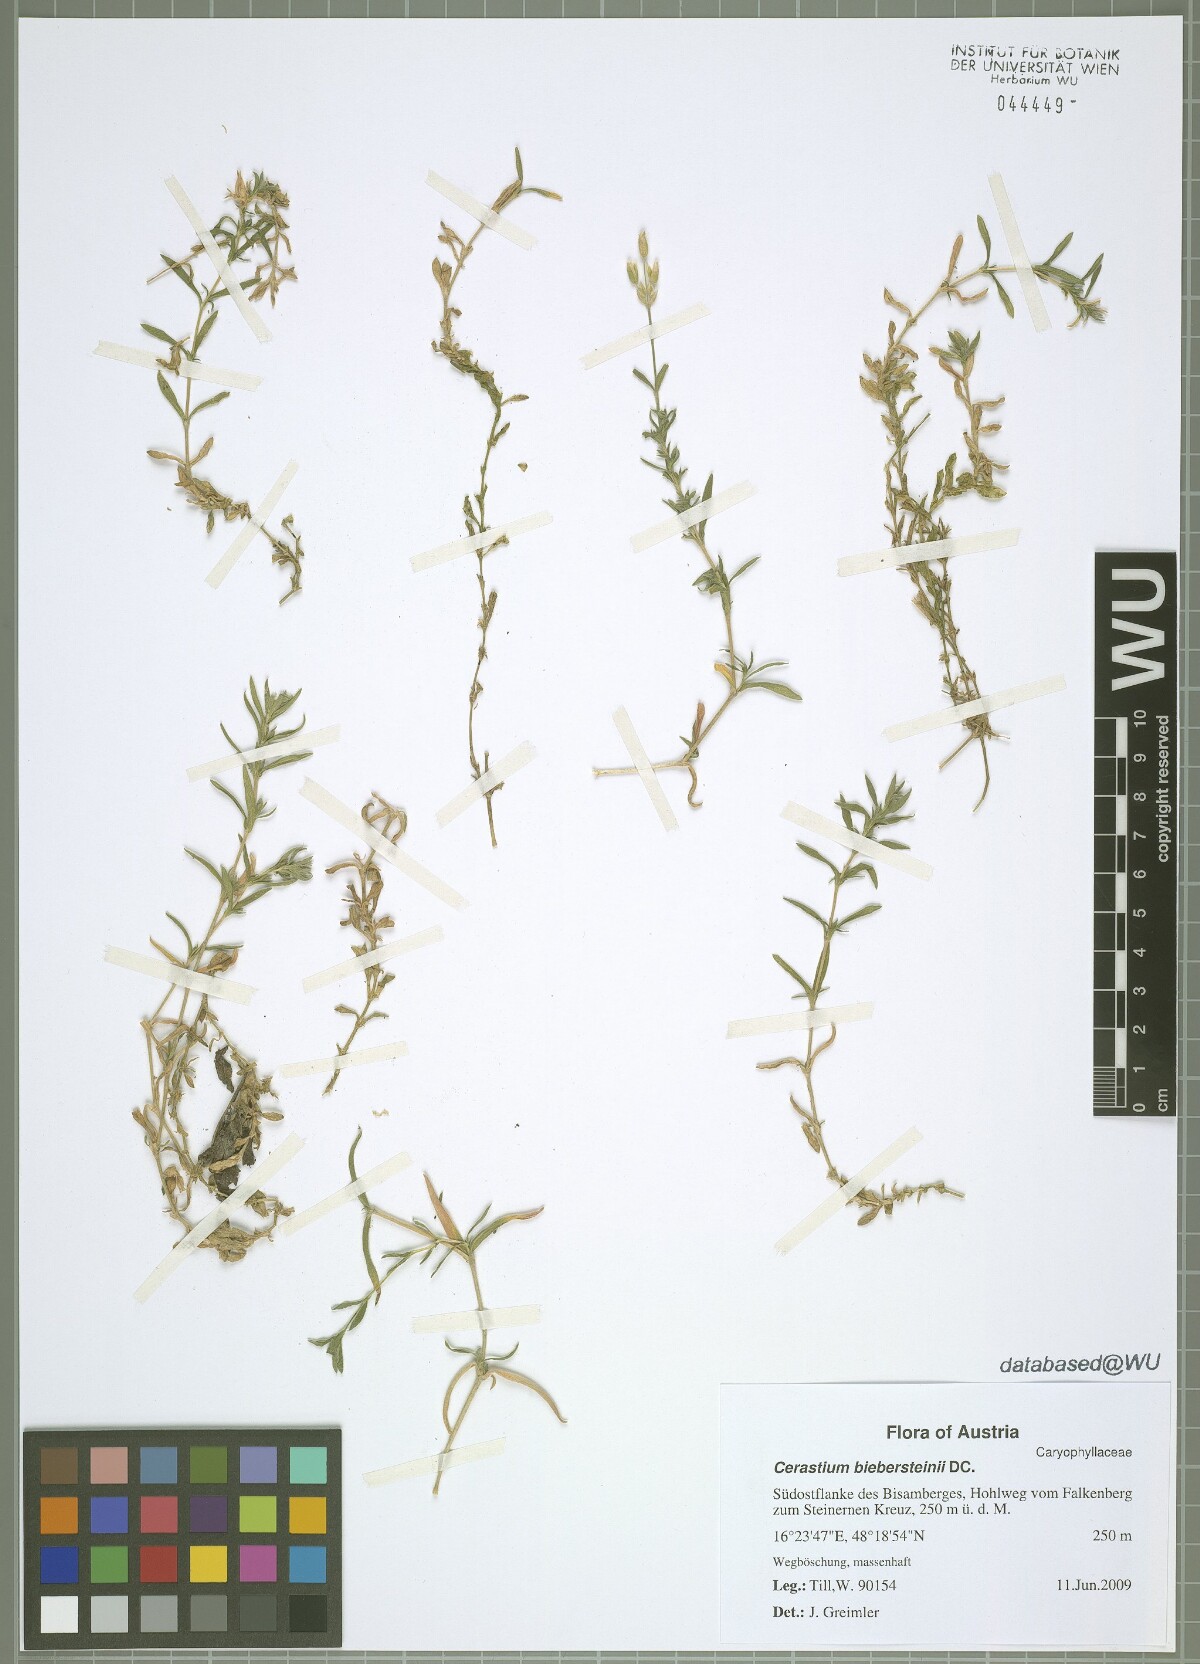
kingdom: Plantae
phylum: Tracheophyta
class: Magnoliopsida
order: Caryophyllales
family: Caryophyllaceae
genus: Cerastium
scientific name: Cerastium biebersteinii
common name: Snow-in-summer
